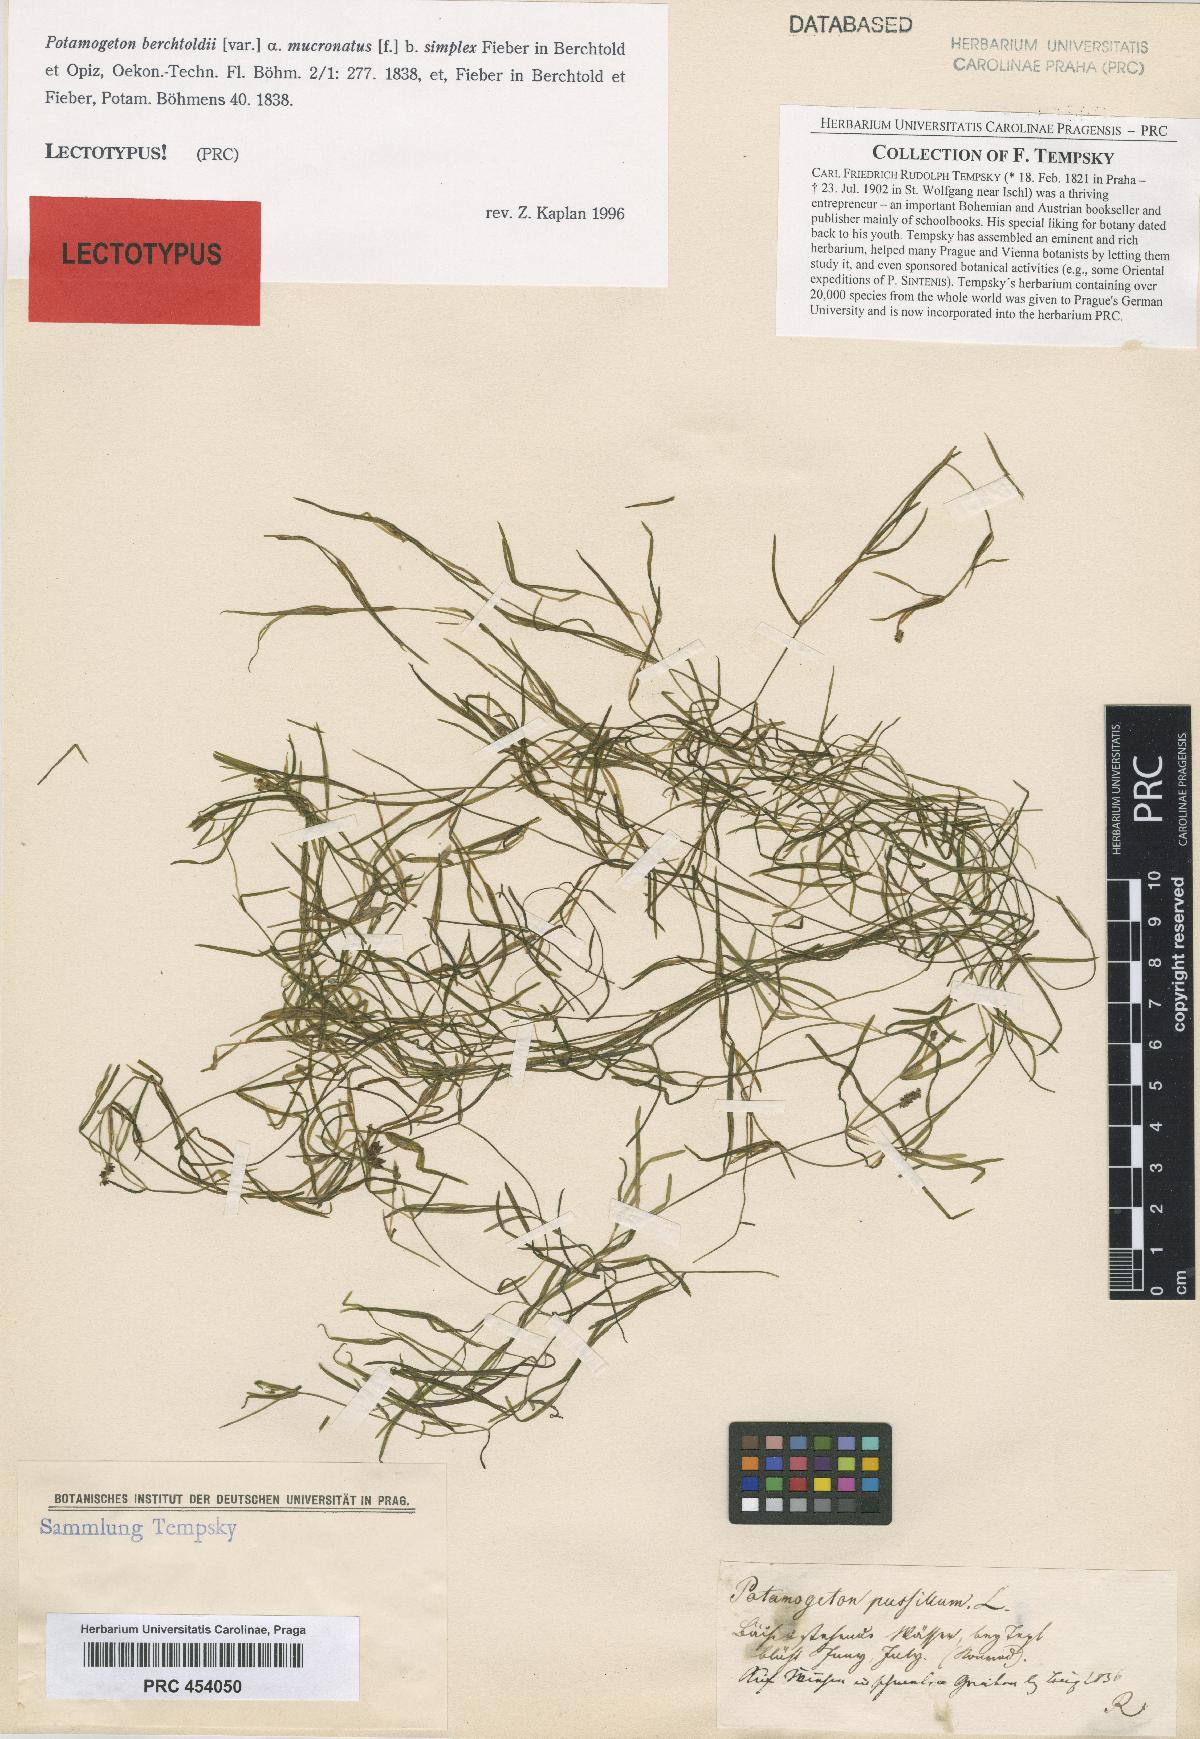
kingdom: Plantae
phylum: Tracheophyta
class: Liliopsida
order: Alismatales
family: Potamogetonaceae
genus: Potamogeton
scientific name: Potamogeton berchtoldii
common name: Small pondweed
